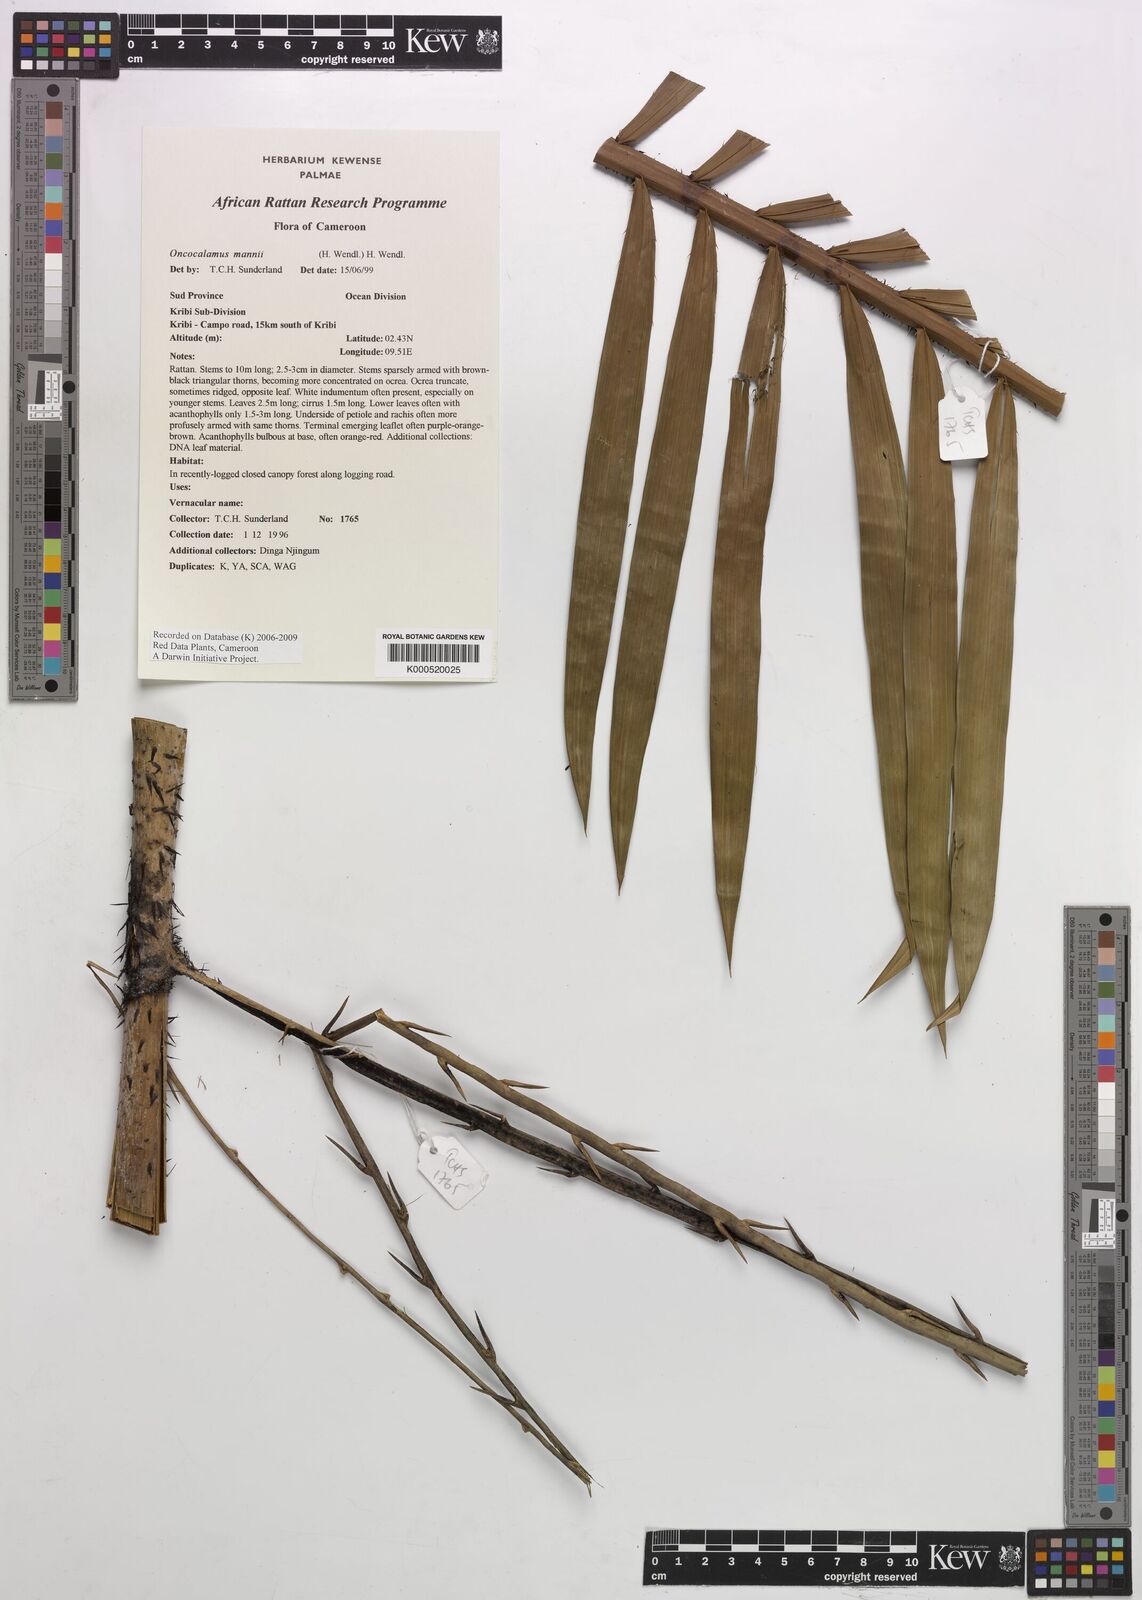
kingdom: Plantae
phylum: Tracheophyta
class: Liliopsida
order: Arecales
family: Arecaceae
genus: Oncocalamus
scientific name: Oncocalamus mannii
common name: Rattan
